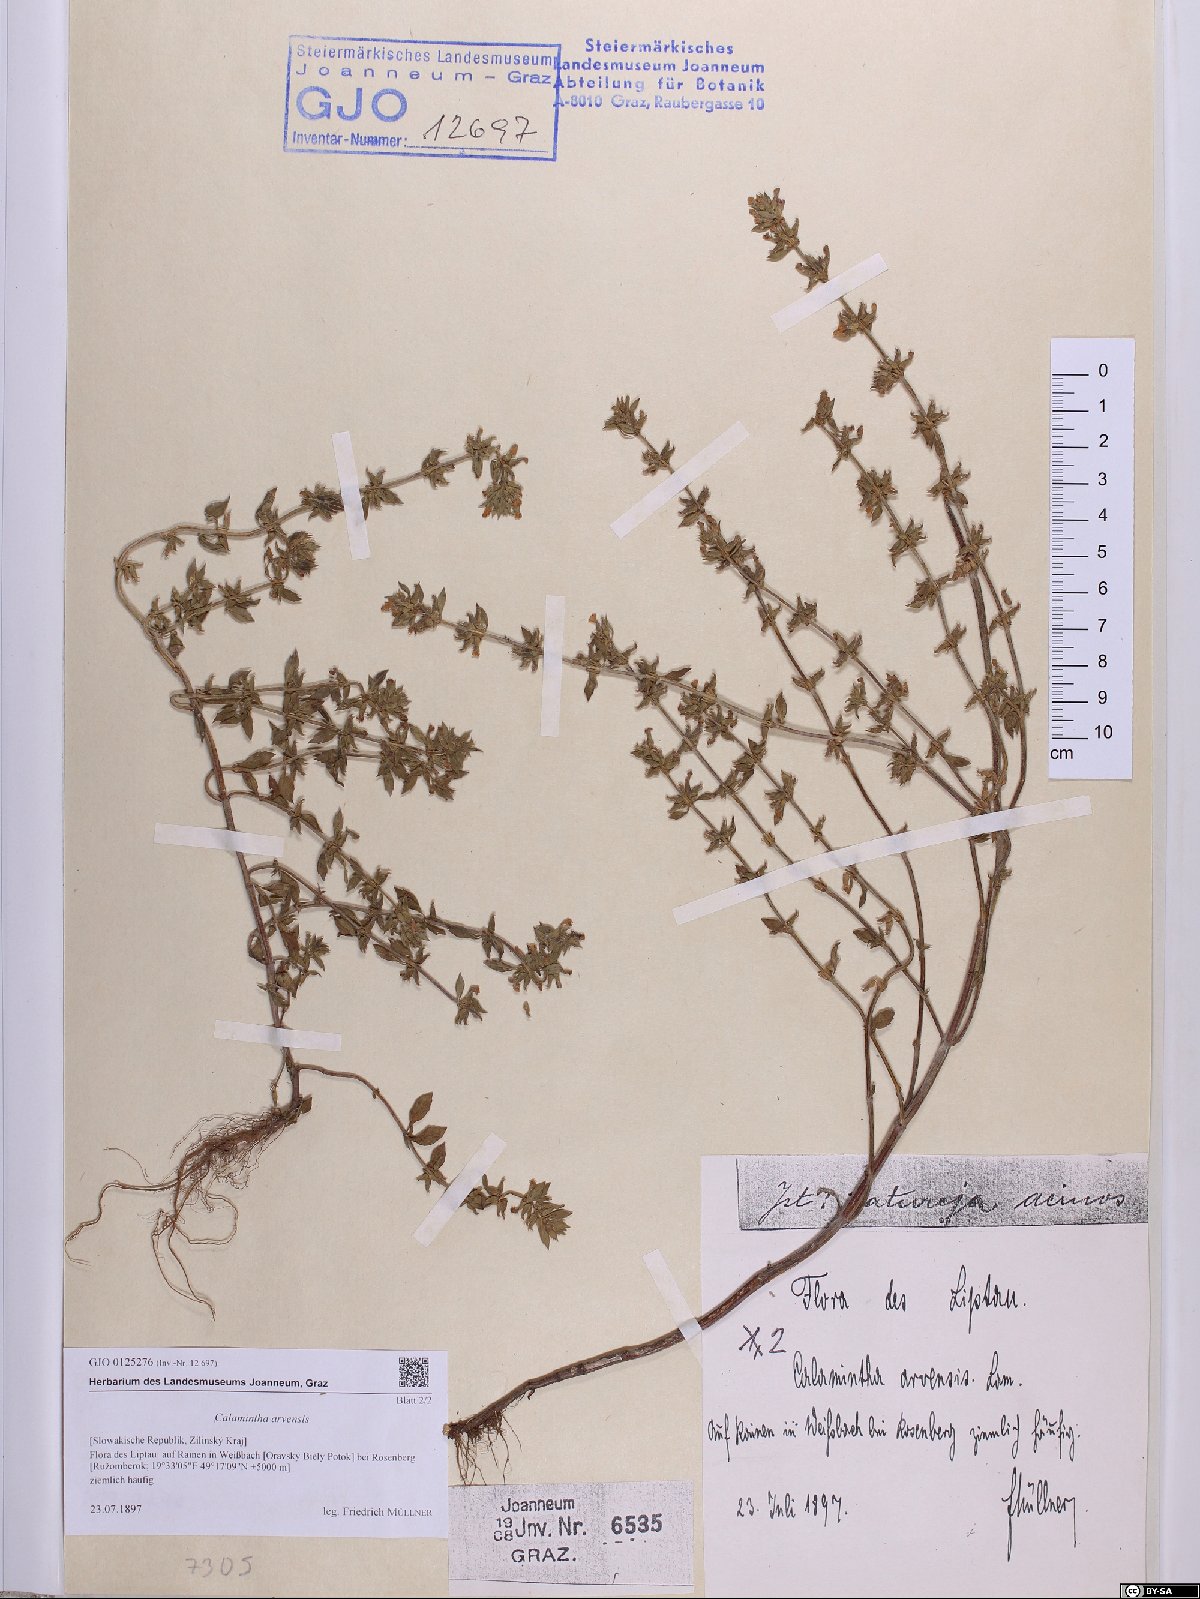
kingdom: Plantae
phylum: Tracheophyta
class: Magnoliopsida
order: Lamiales
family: Lamiaceae
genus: Clinopodium
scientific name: Clinopodium acinos
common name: Basil thyme
